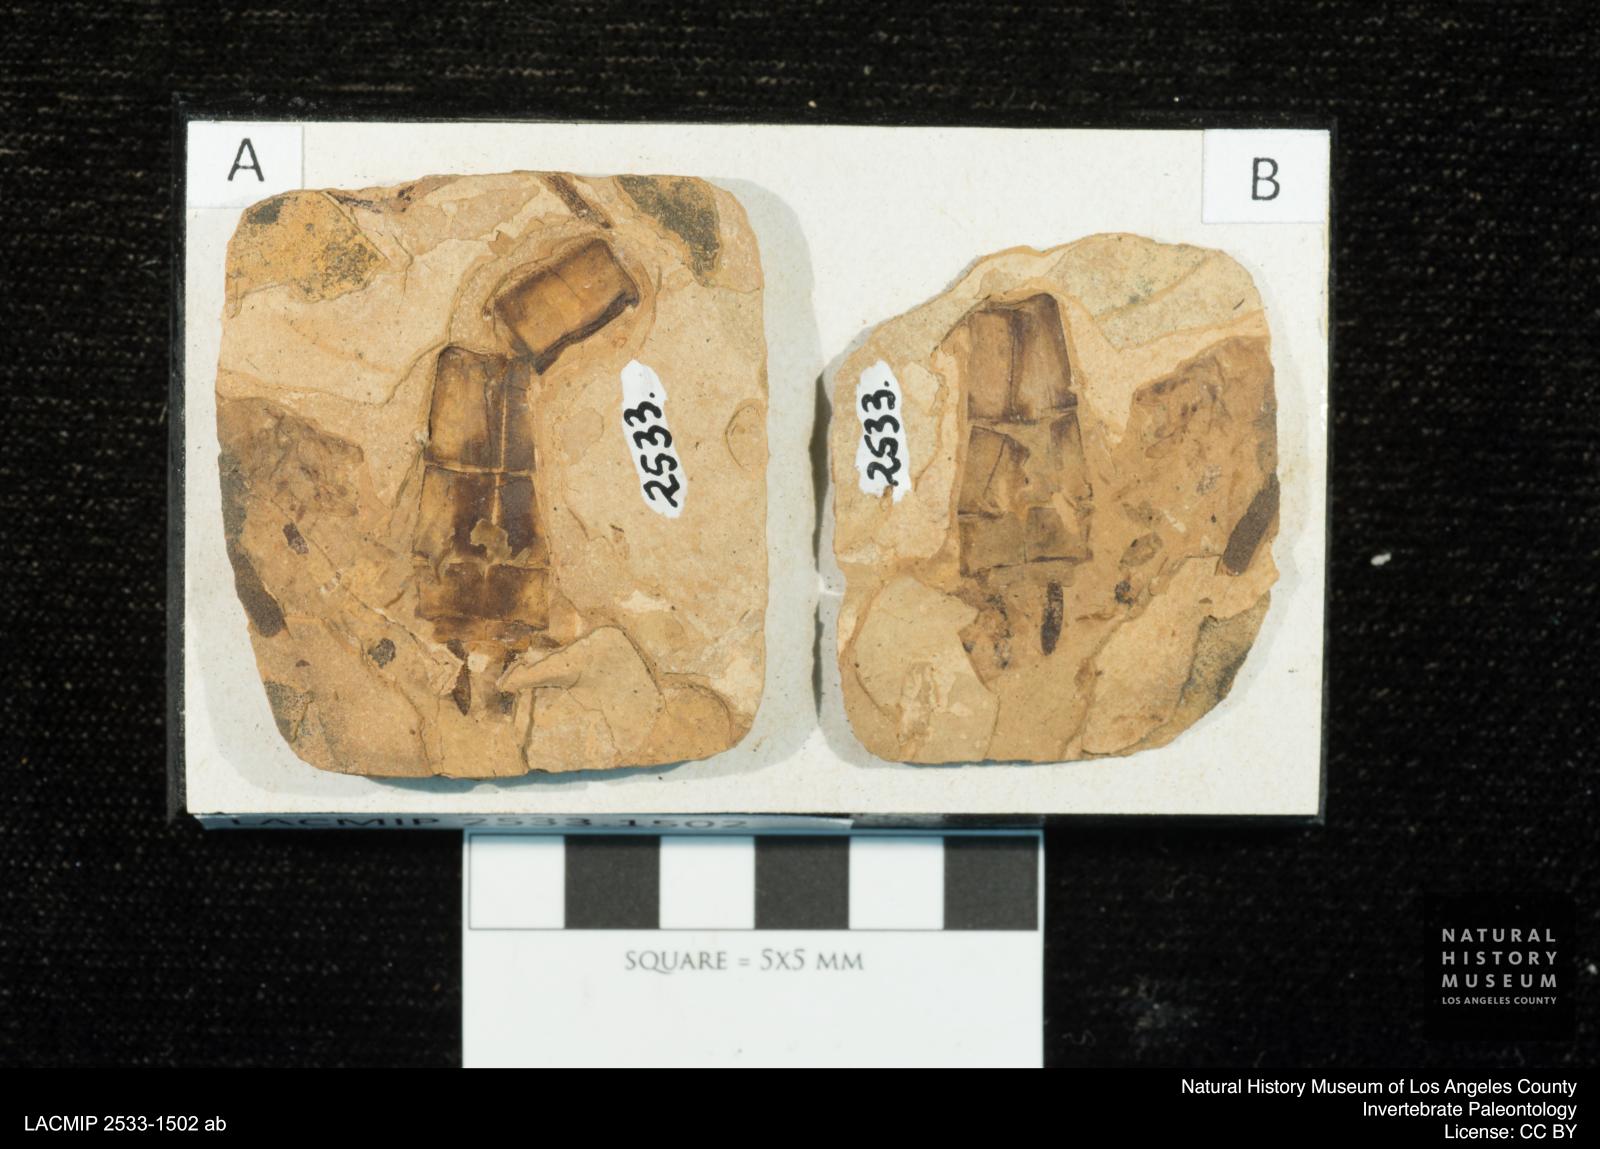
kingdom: Animalia
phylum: Arthropoda
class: Insecta
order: Odonata
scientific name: Odonata
